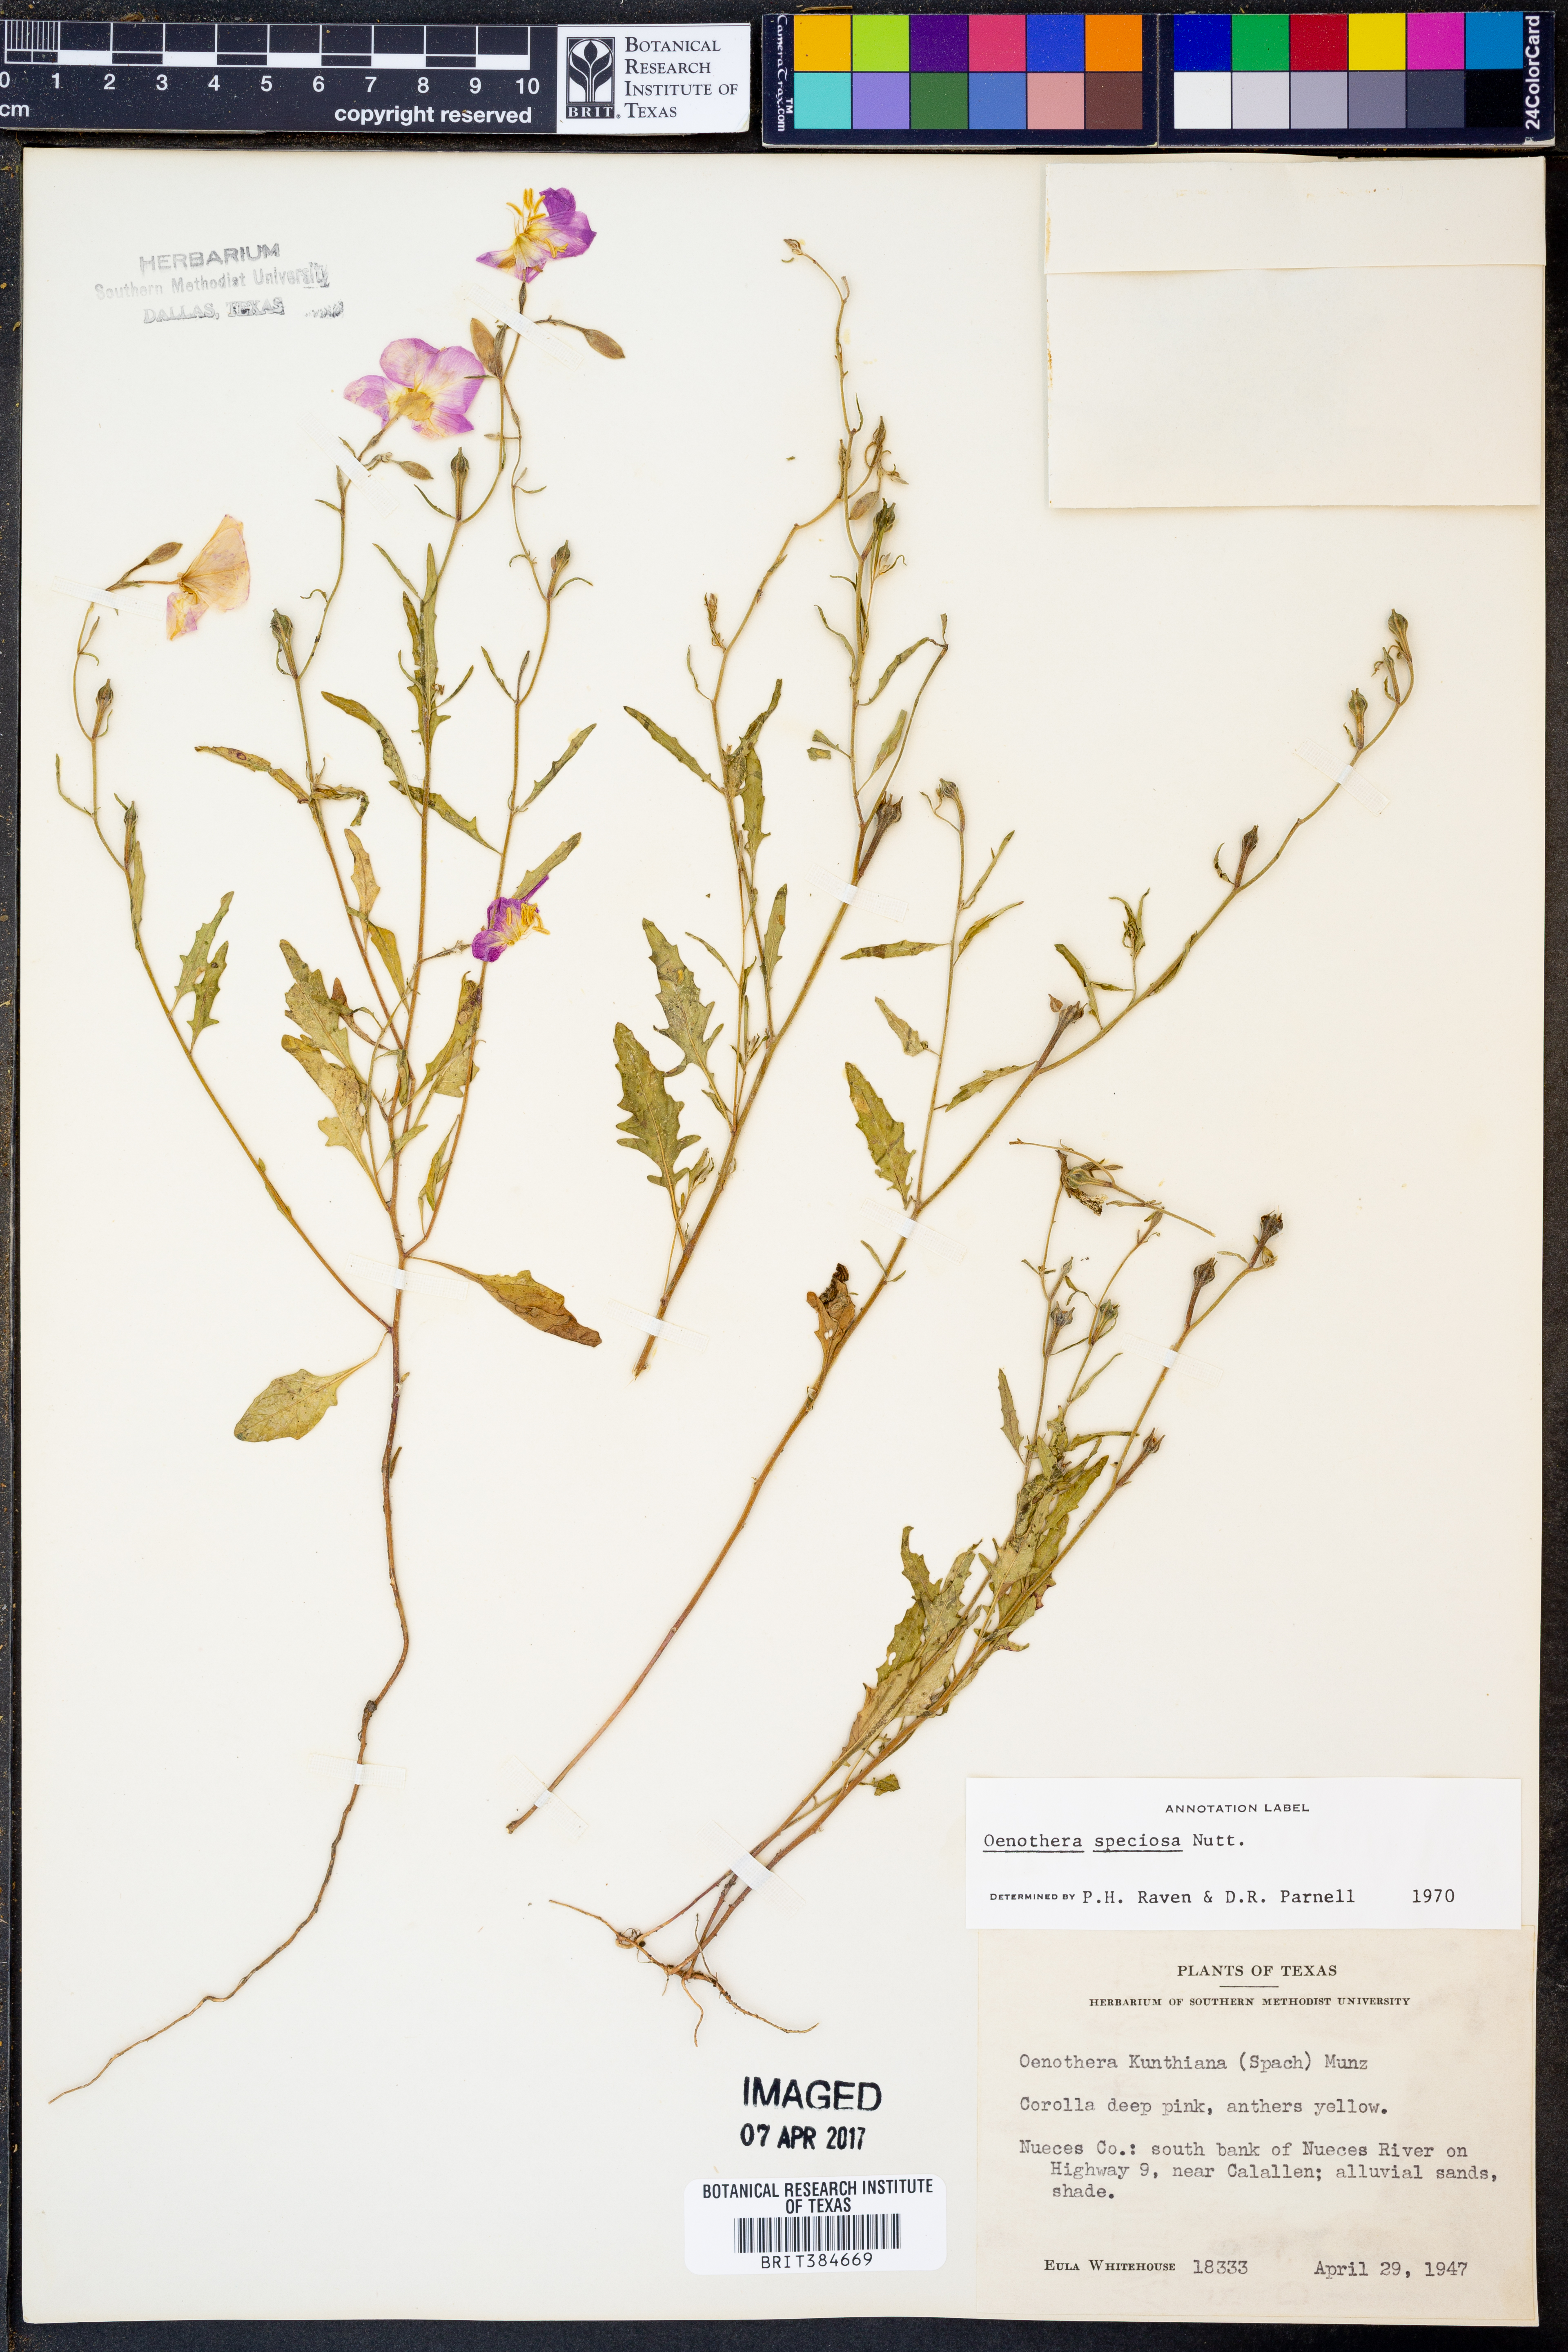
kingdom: Plantae
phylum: Tracheophyta
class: Magnoliopsida
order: Myrtales
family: Onagraceae
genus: Oenothera
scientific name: Oenothera speciosa
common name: White evening-primrose
